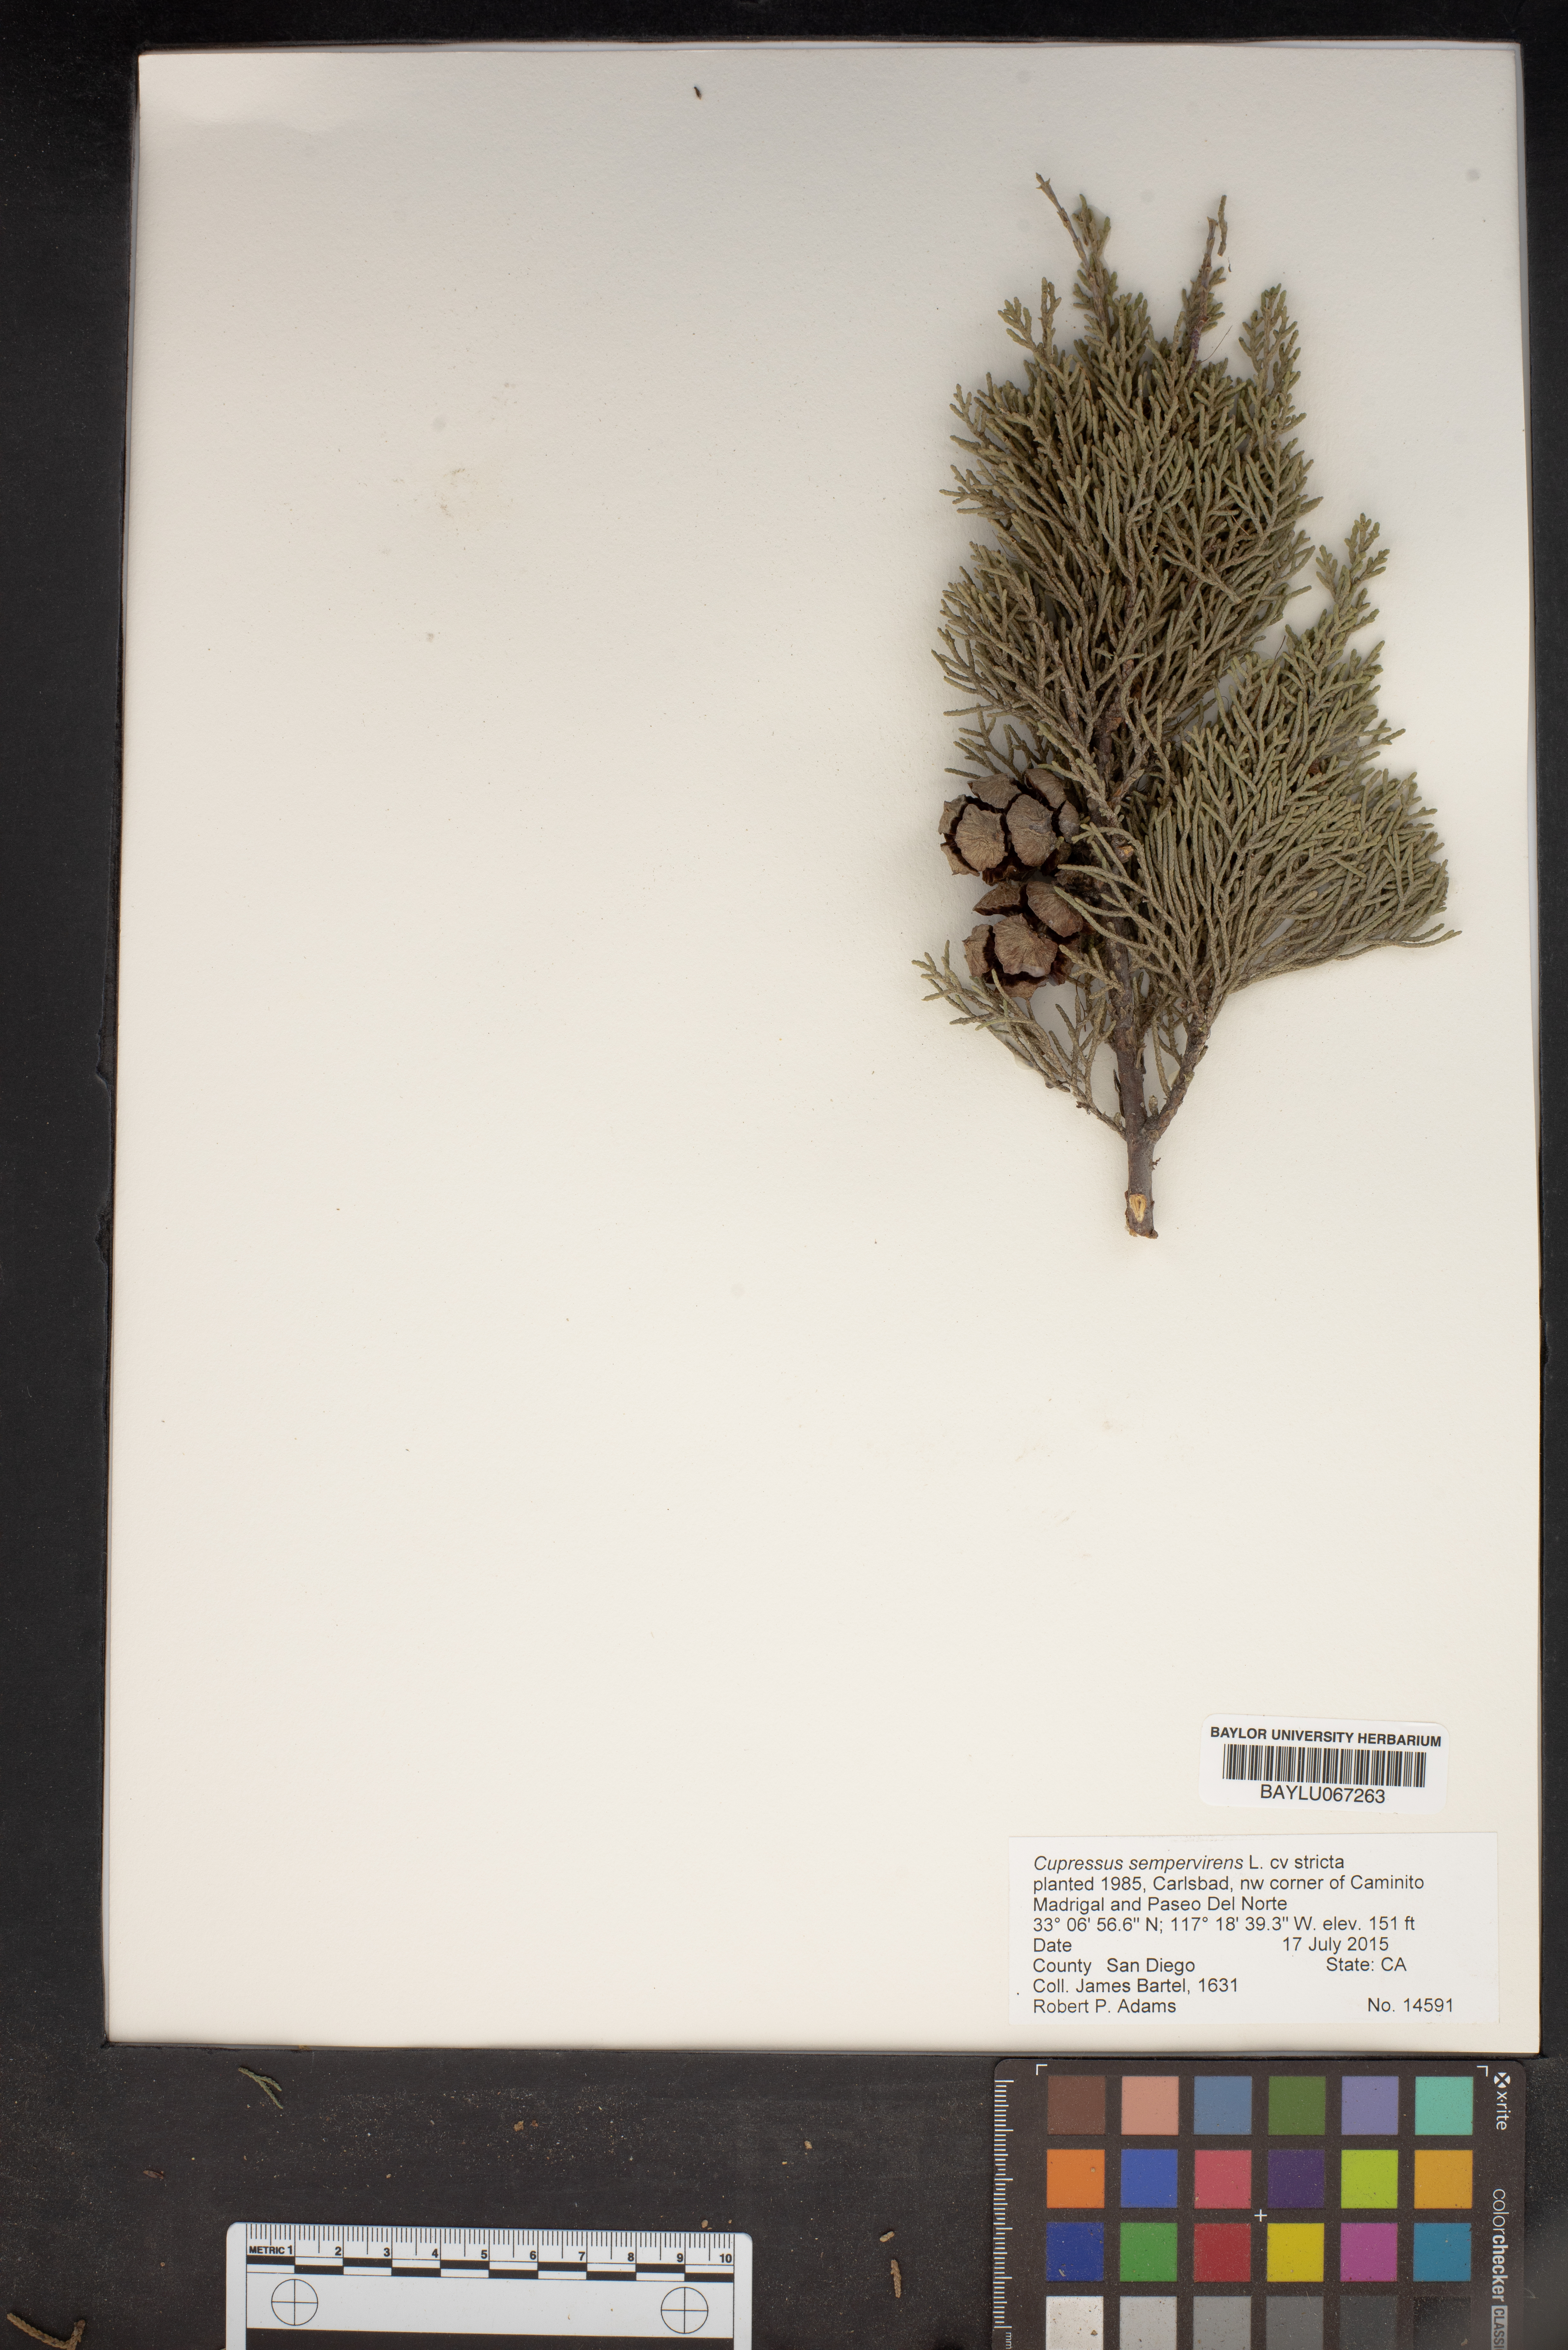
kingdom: Plantae
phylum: Tracheophyta
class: Pinopsida
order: Pinales
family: Cupressaceae
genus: Cupressus
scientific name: Cupressus sempervirens
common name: Italian cypress
